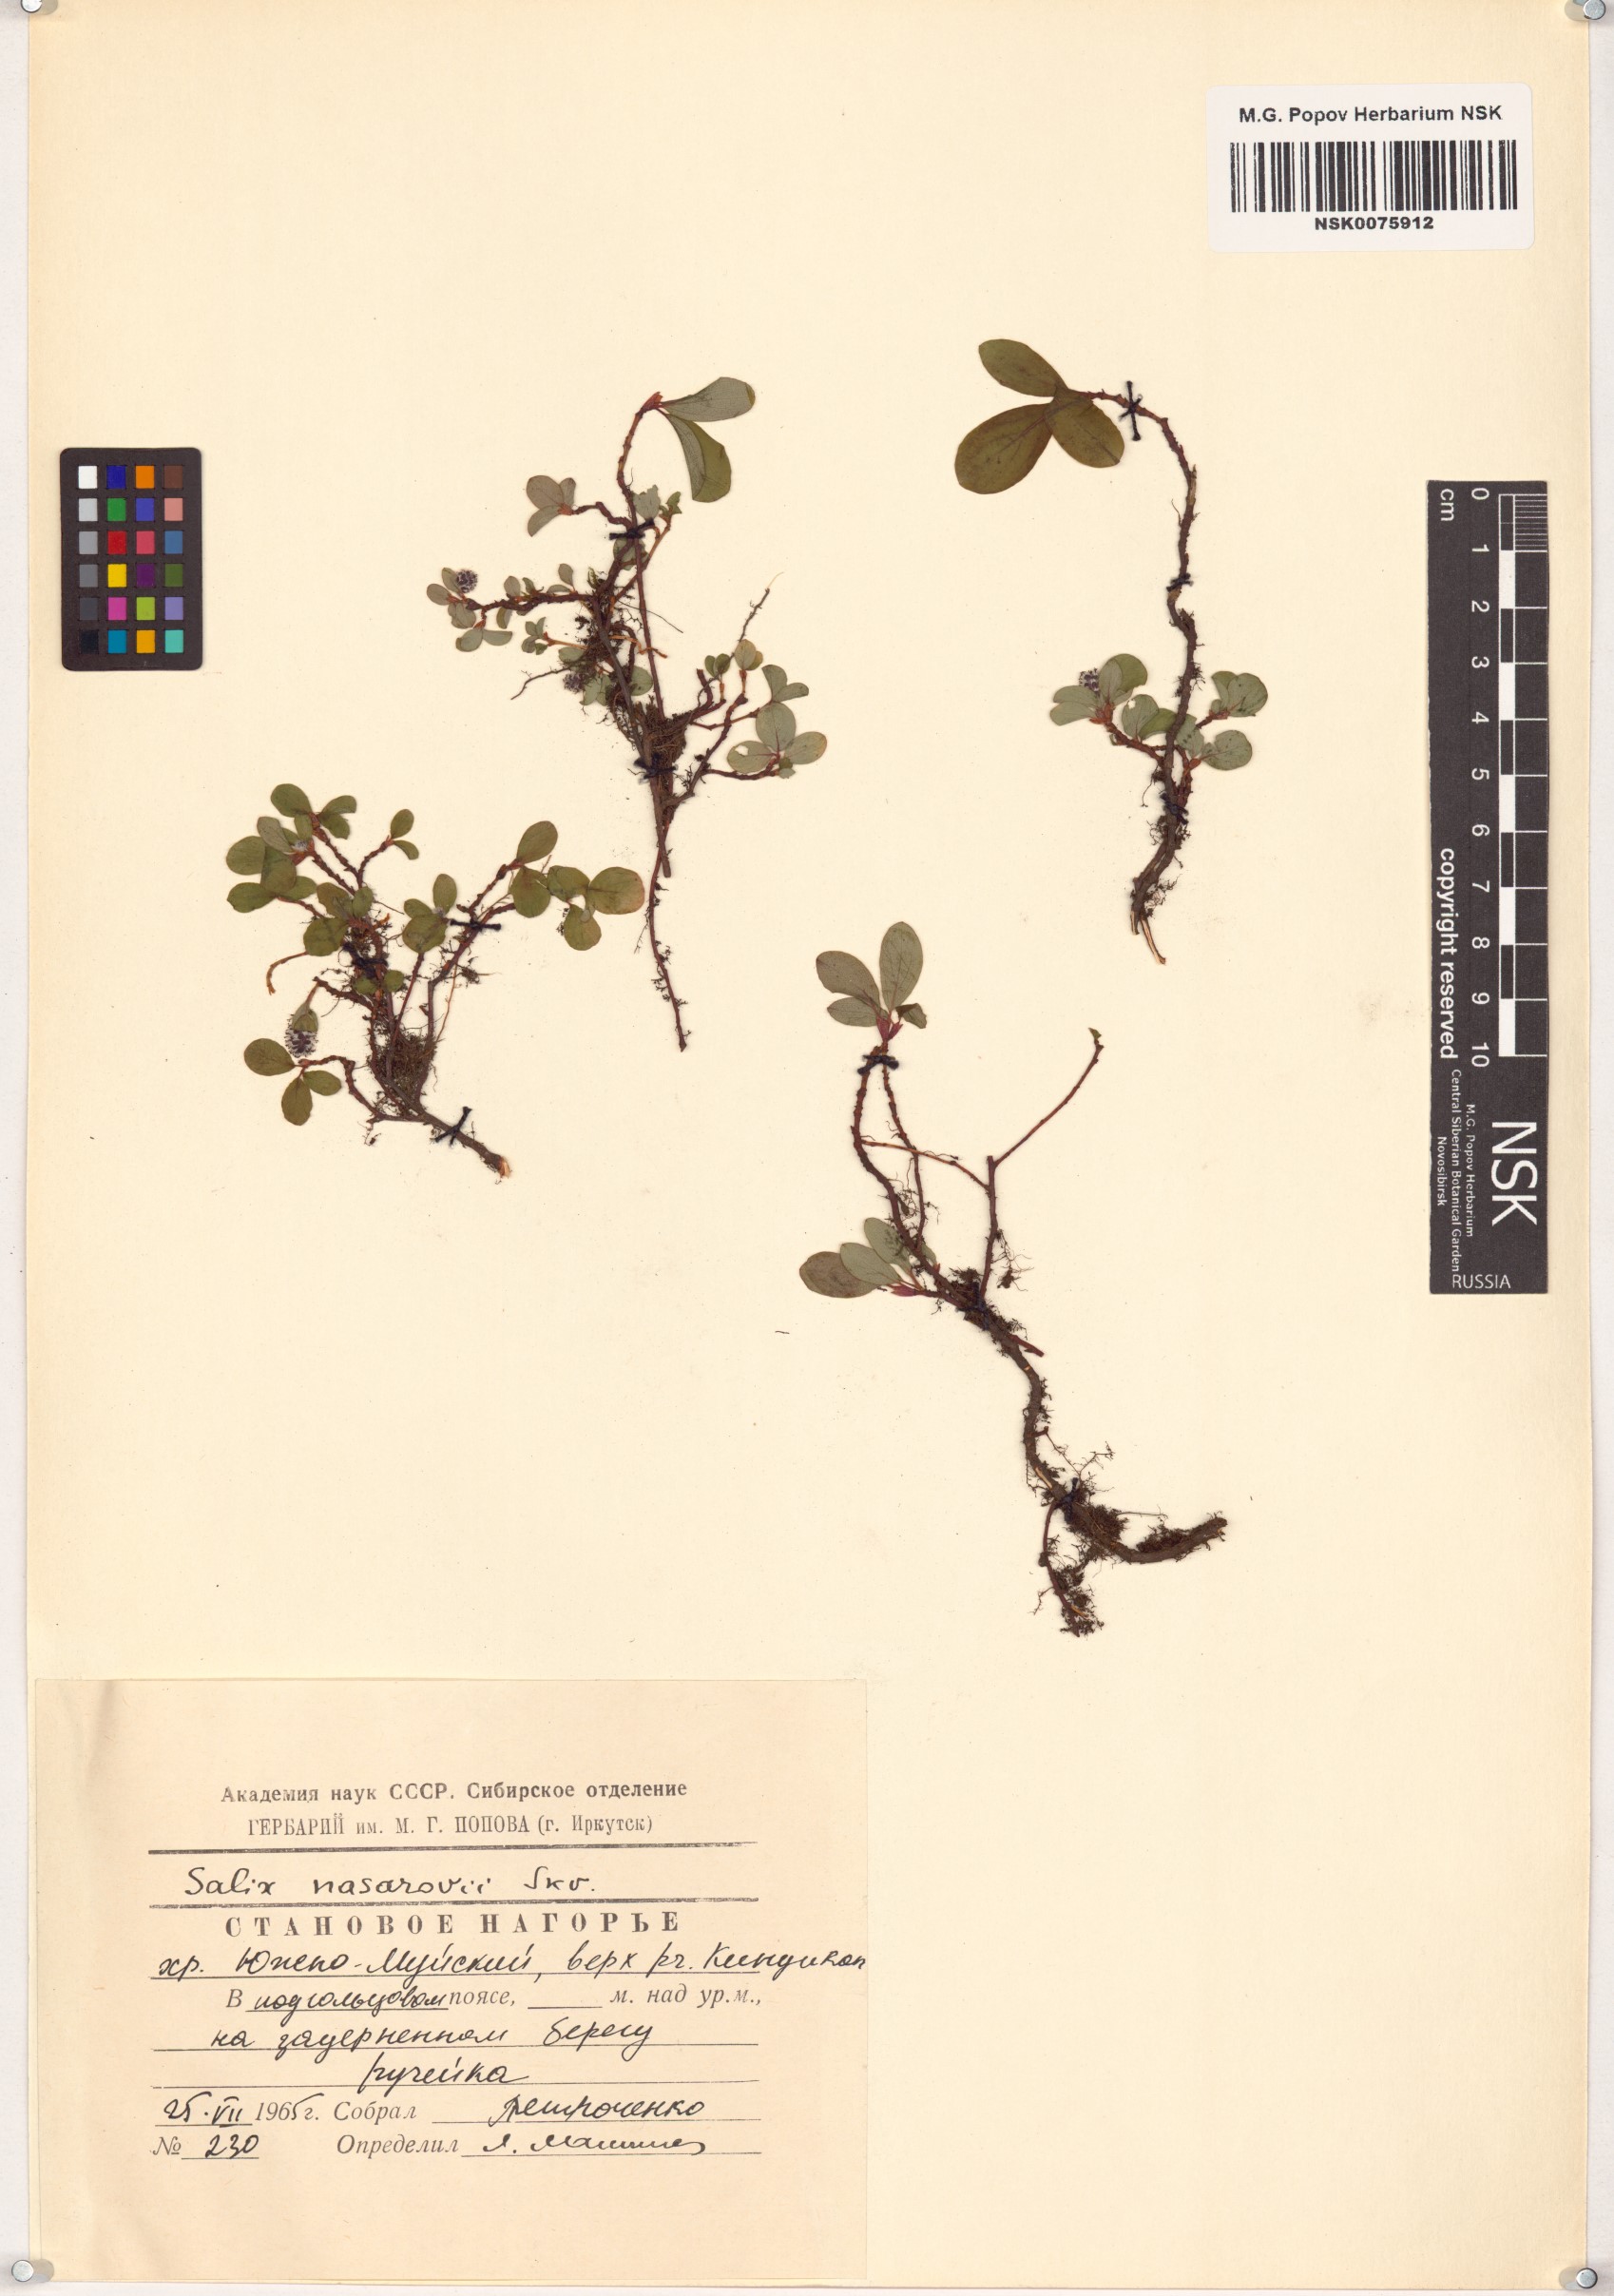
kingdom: Plantae
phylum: Tracheophyta
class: Magnoliopsida
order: Malpighiales
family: Salicaceae
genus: Salix
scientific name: Salix nasarovii
